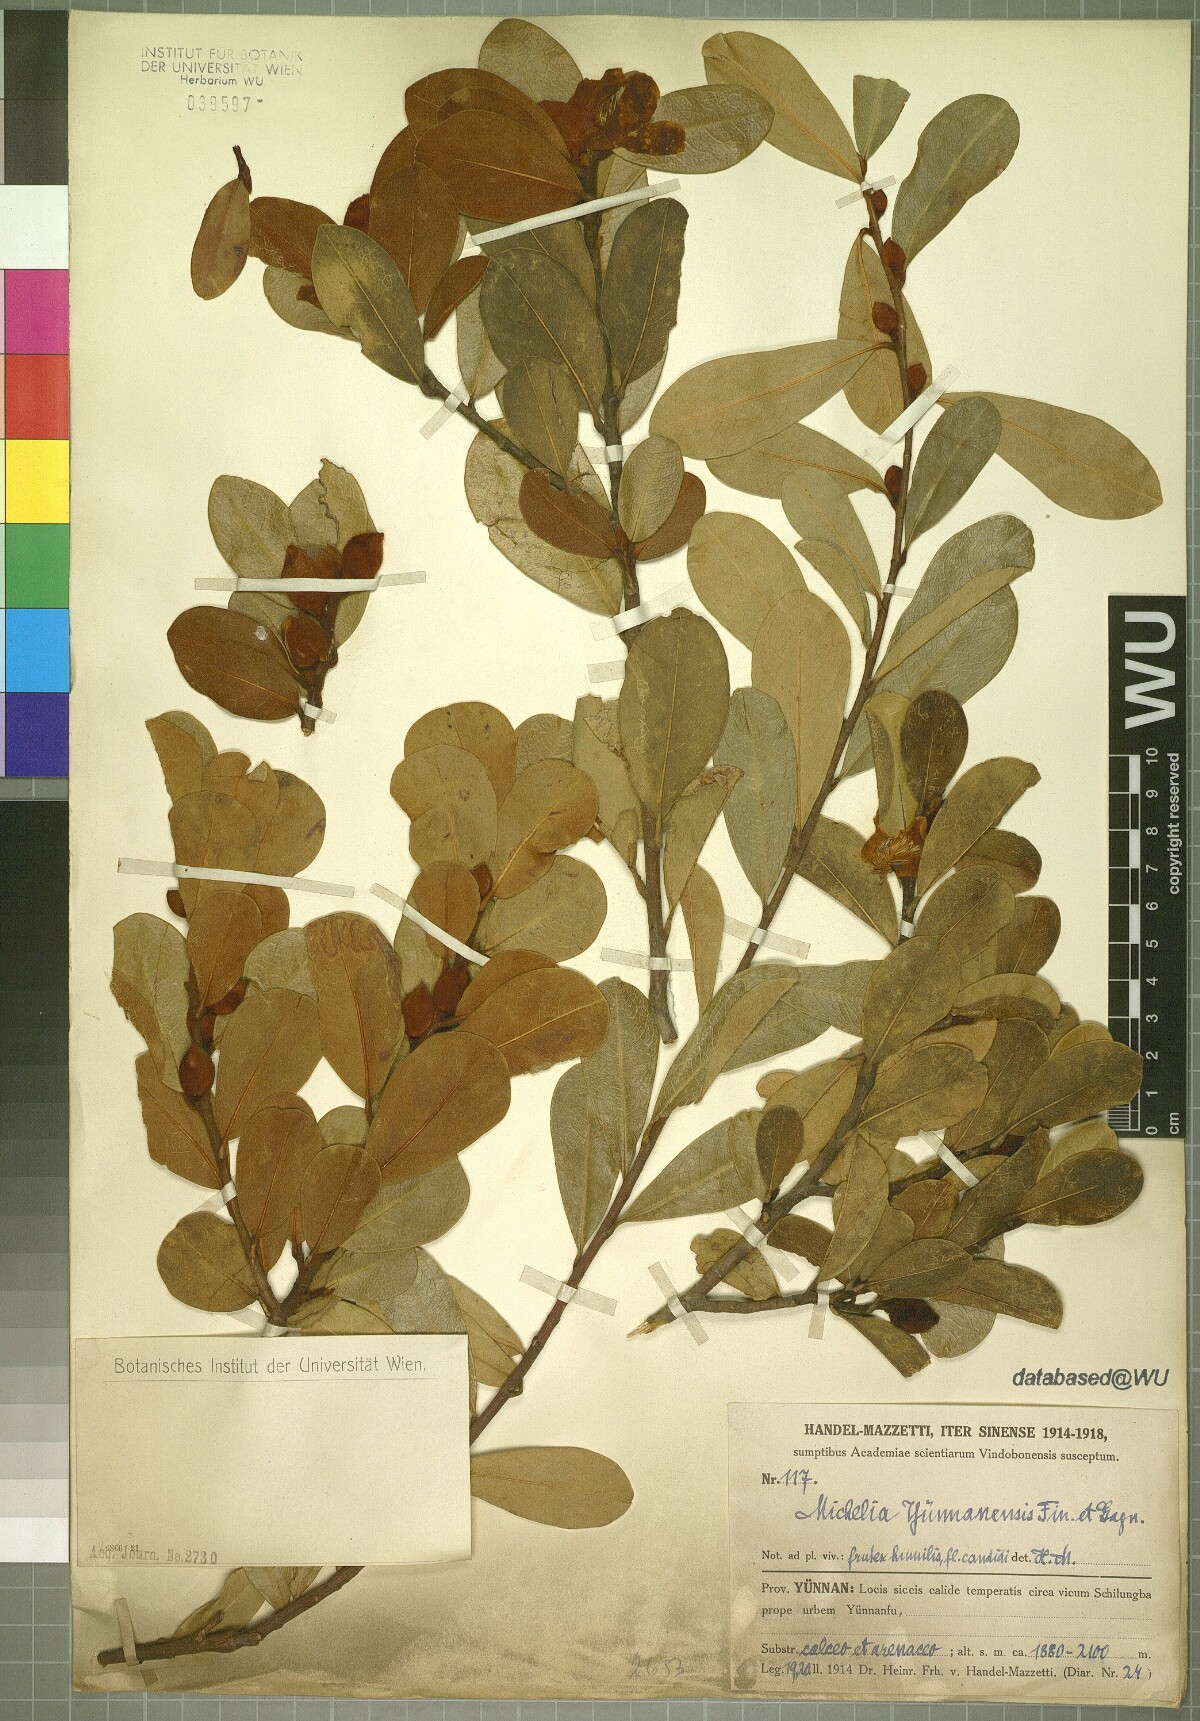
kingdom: Plantae
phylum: Tracheophyta
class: Magnoliopsida
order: Magnoliales
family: Magnoliaceae
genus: Magnolia
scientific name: Magnolia laevifolia
